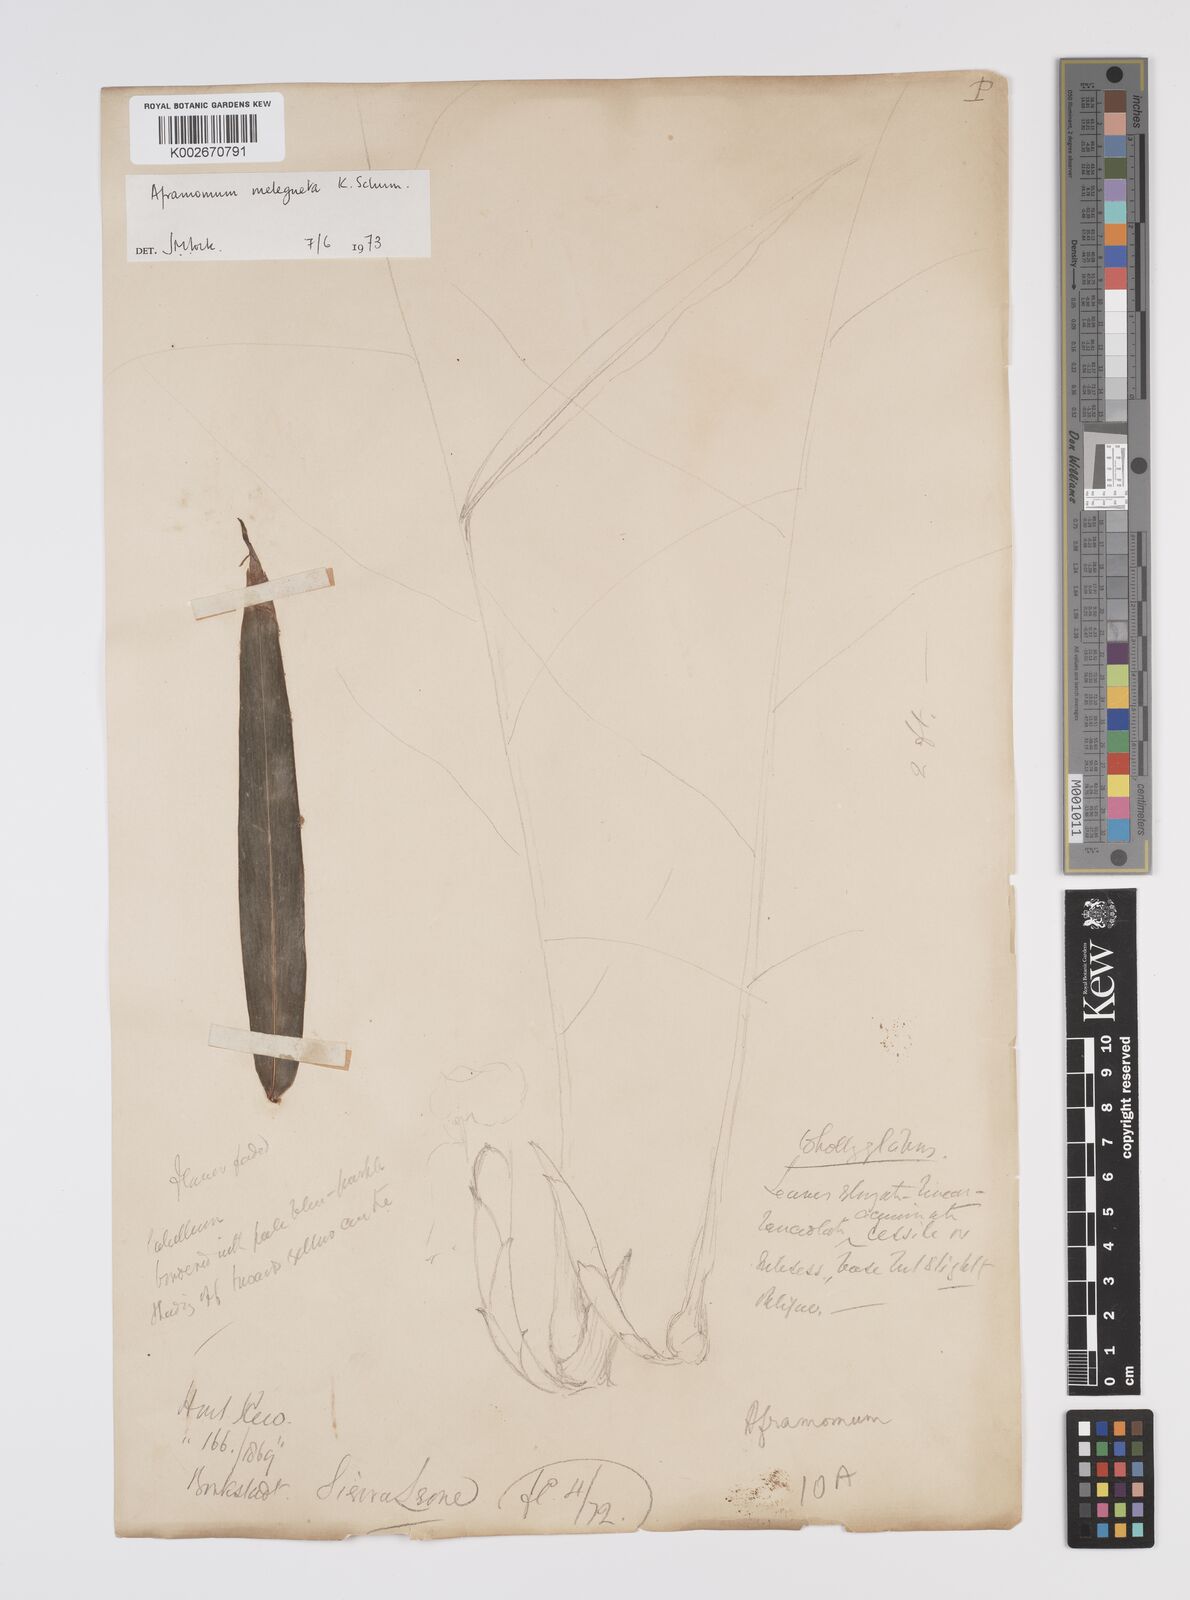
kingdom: Plantae
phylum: Tracheophyta
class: Liliopsida
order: Zingiberales
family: Zingiberaceae
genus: Aframomum
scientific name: Aframomum melegueta
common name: Grains of paradise
